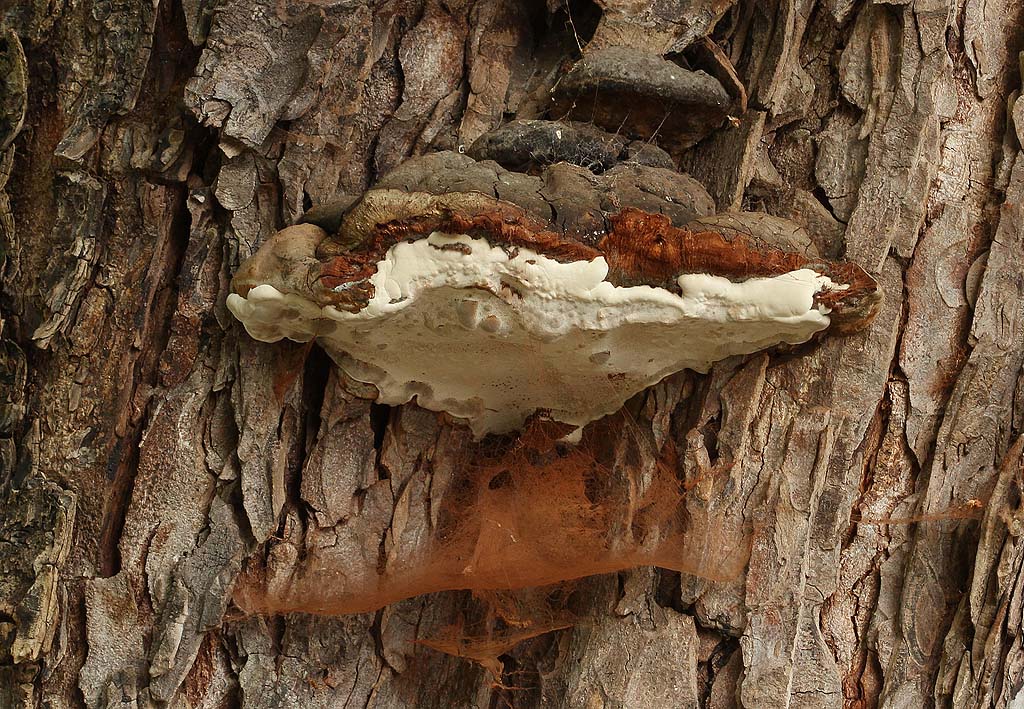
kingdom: Fungi
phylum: Basidiomycota
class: Agaricomycetes
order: Polyporales
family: Polyporaceae
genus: Ganoderma
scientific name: Ganoderma adspersum
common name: grov lakporesvamp
